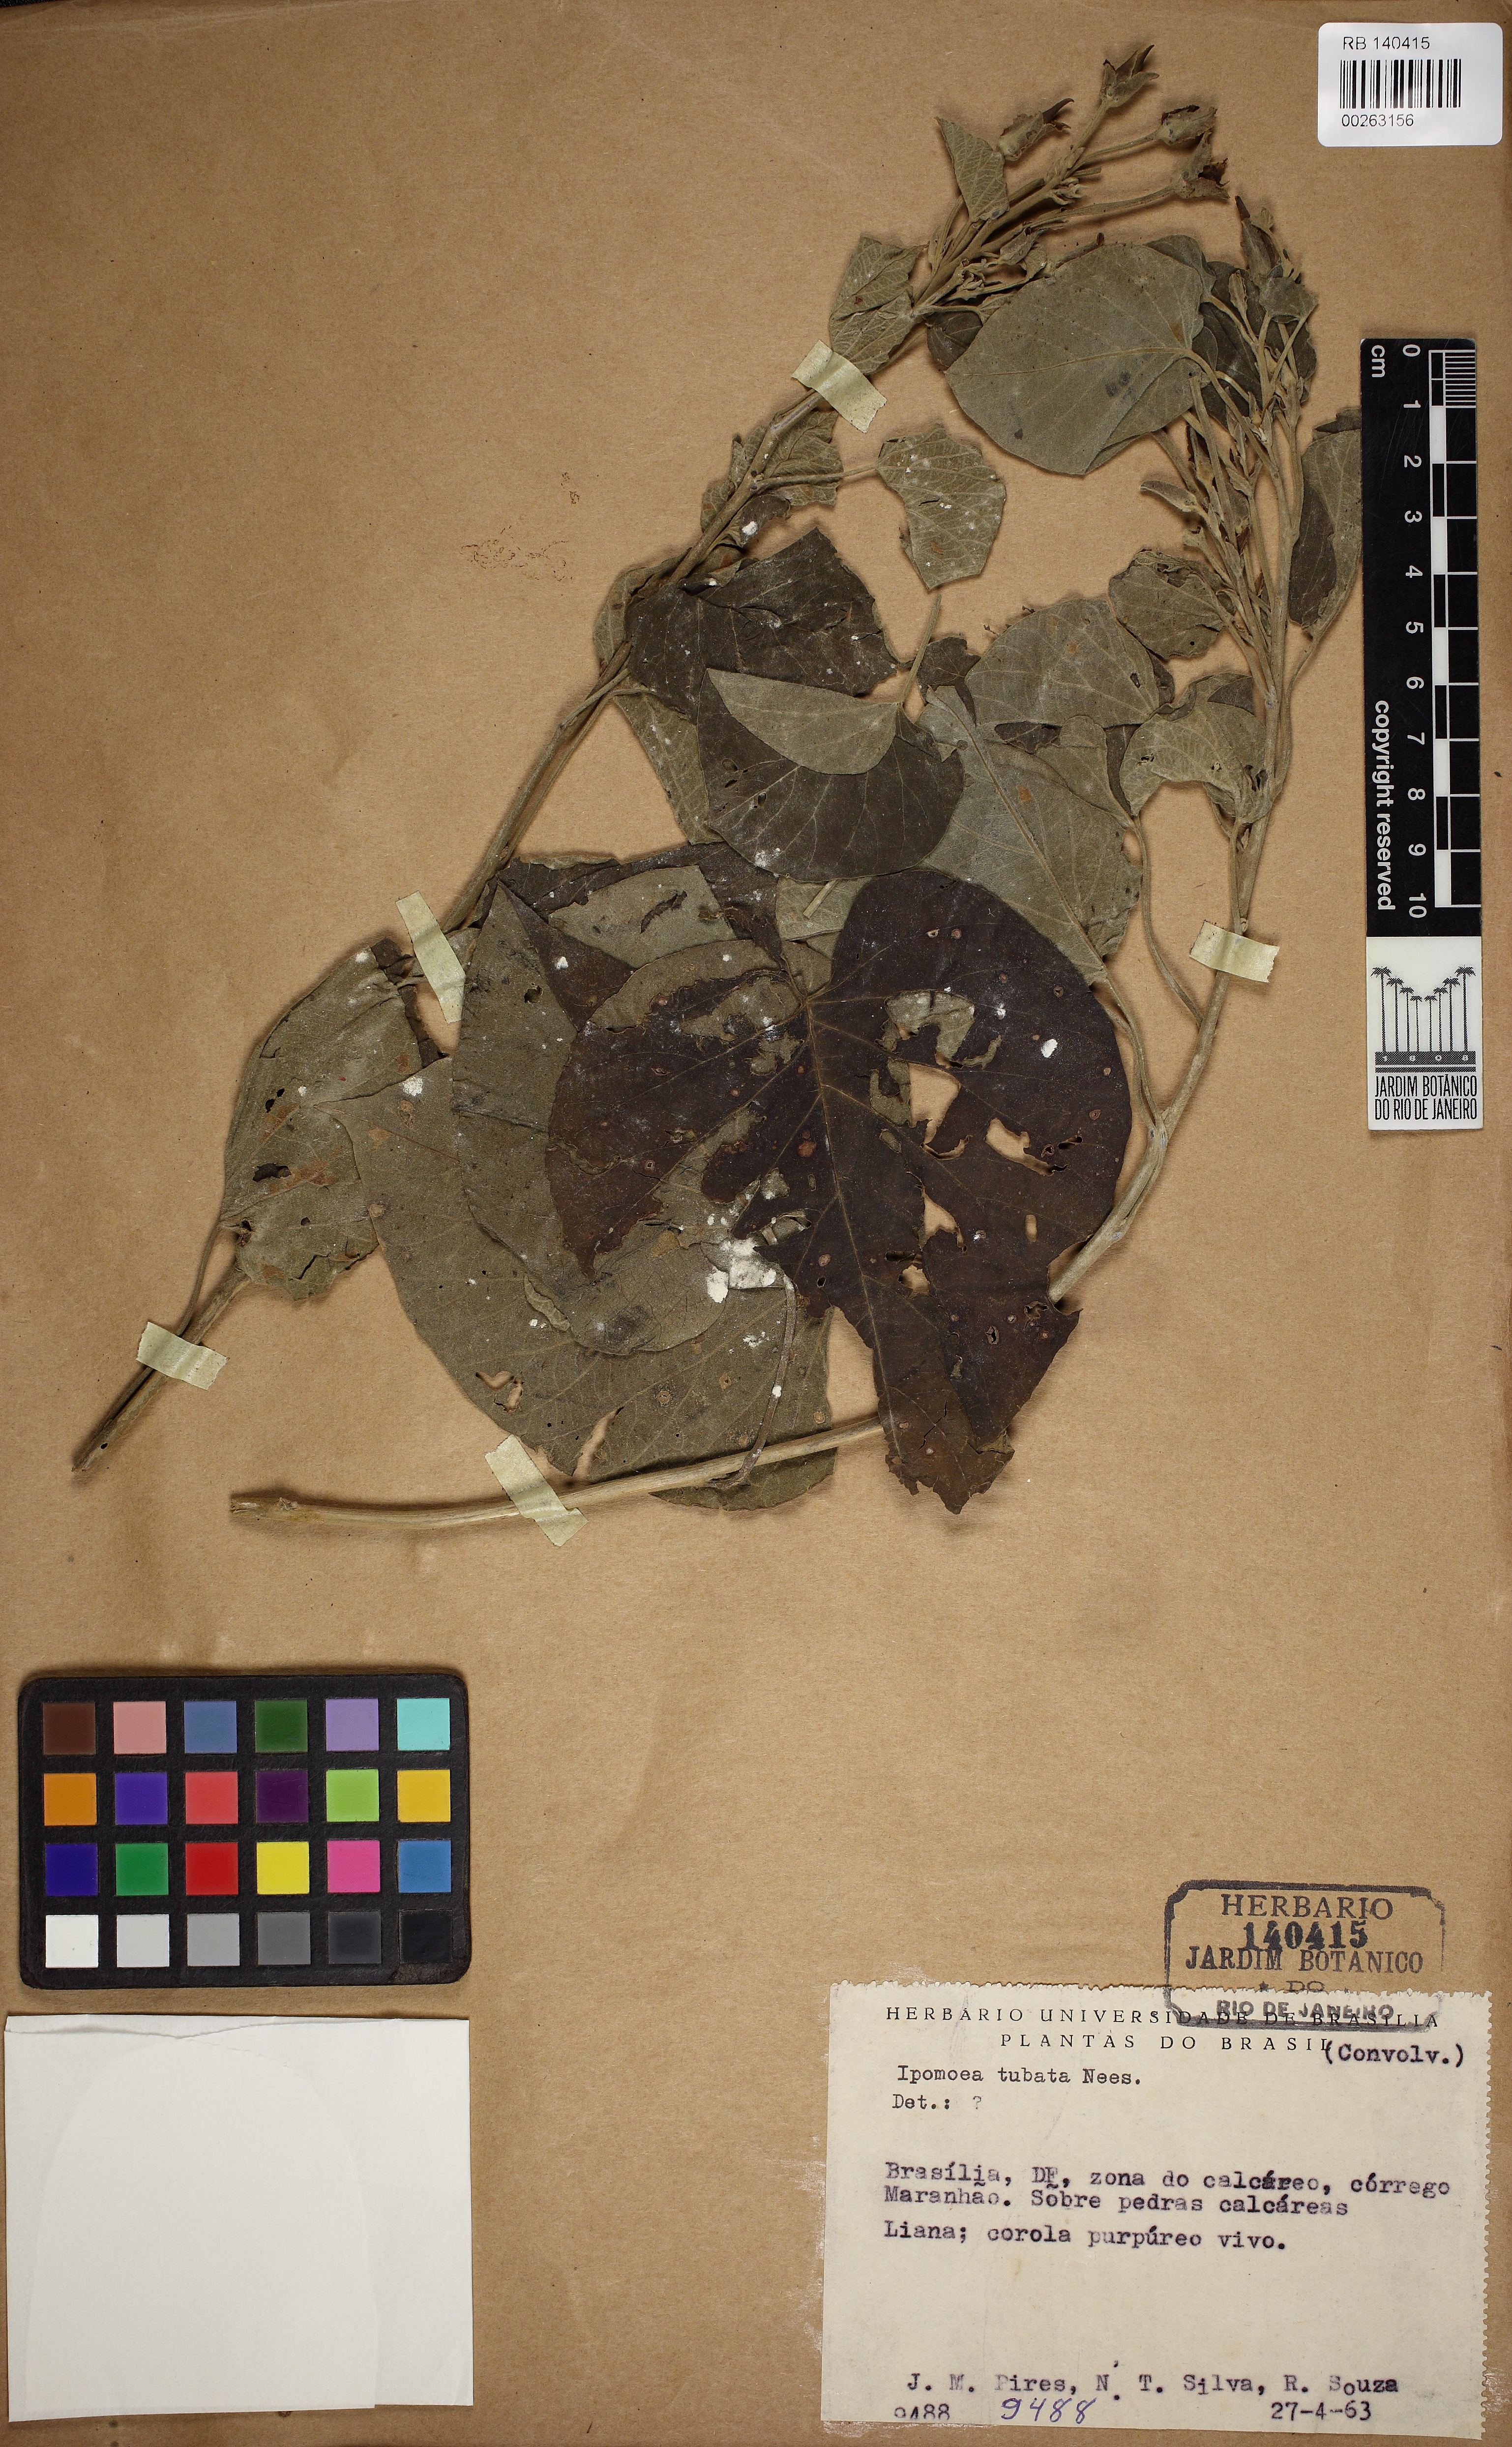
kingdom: Plantae
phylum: Tracheophyta
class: Magnoliopsida
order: Solanales
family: Convolvulaceae
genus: Ipomoea
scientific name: Ipomoea sidifolia
